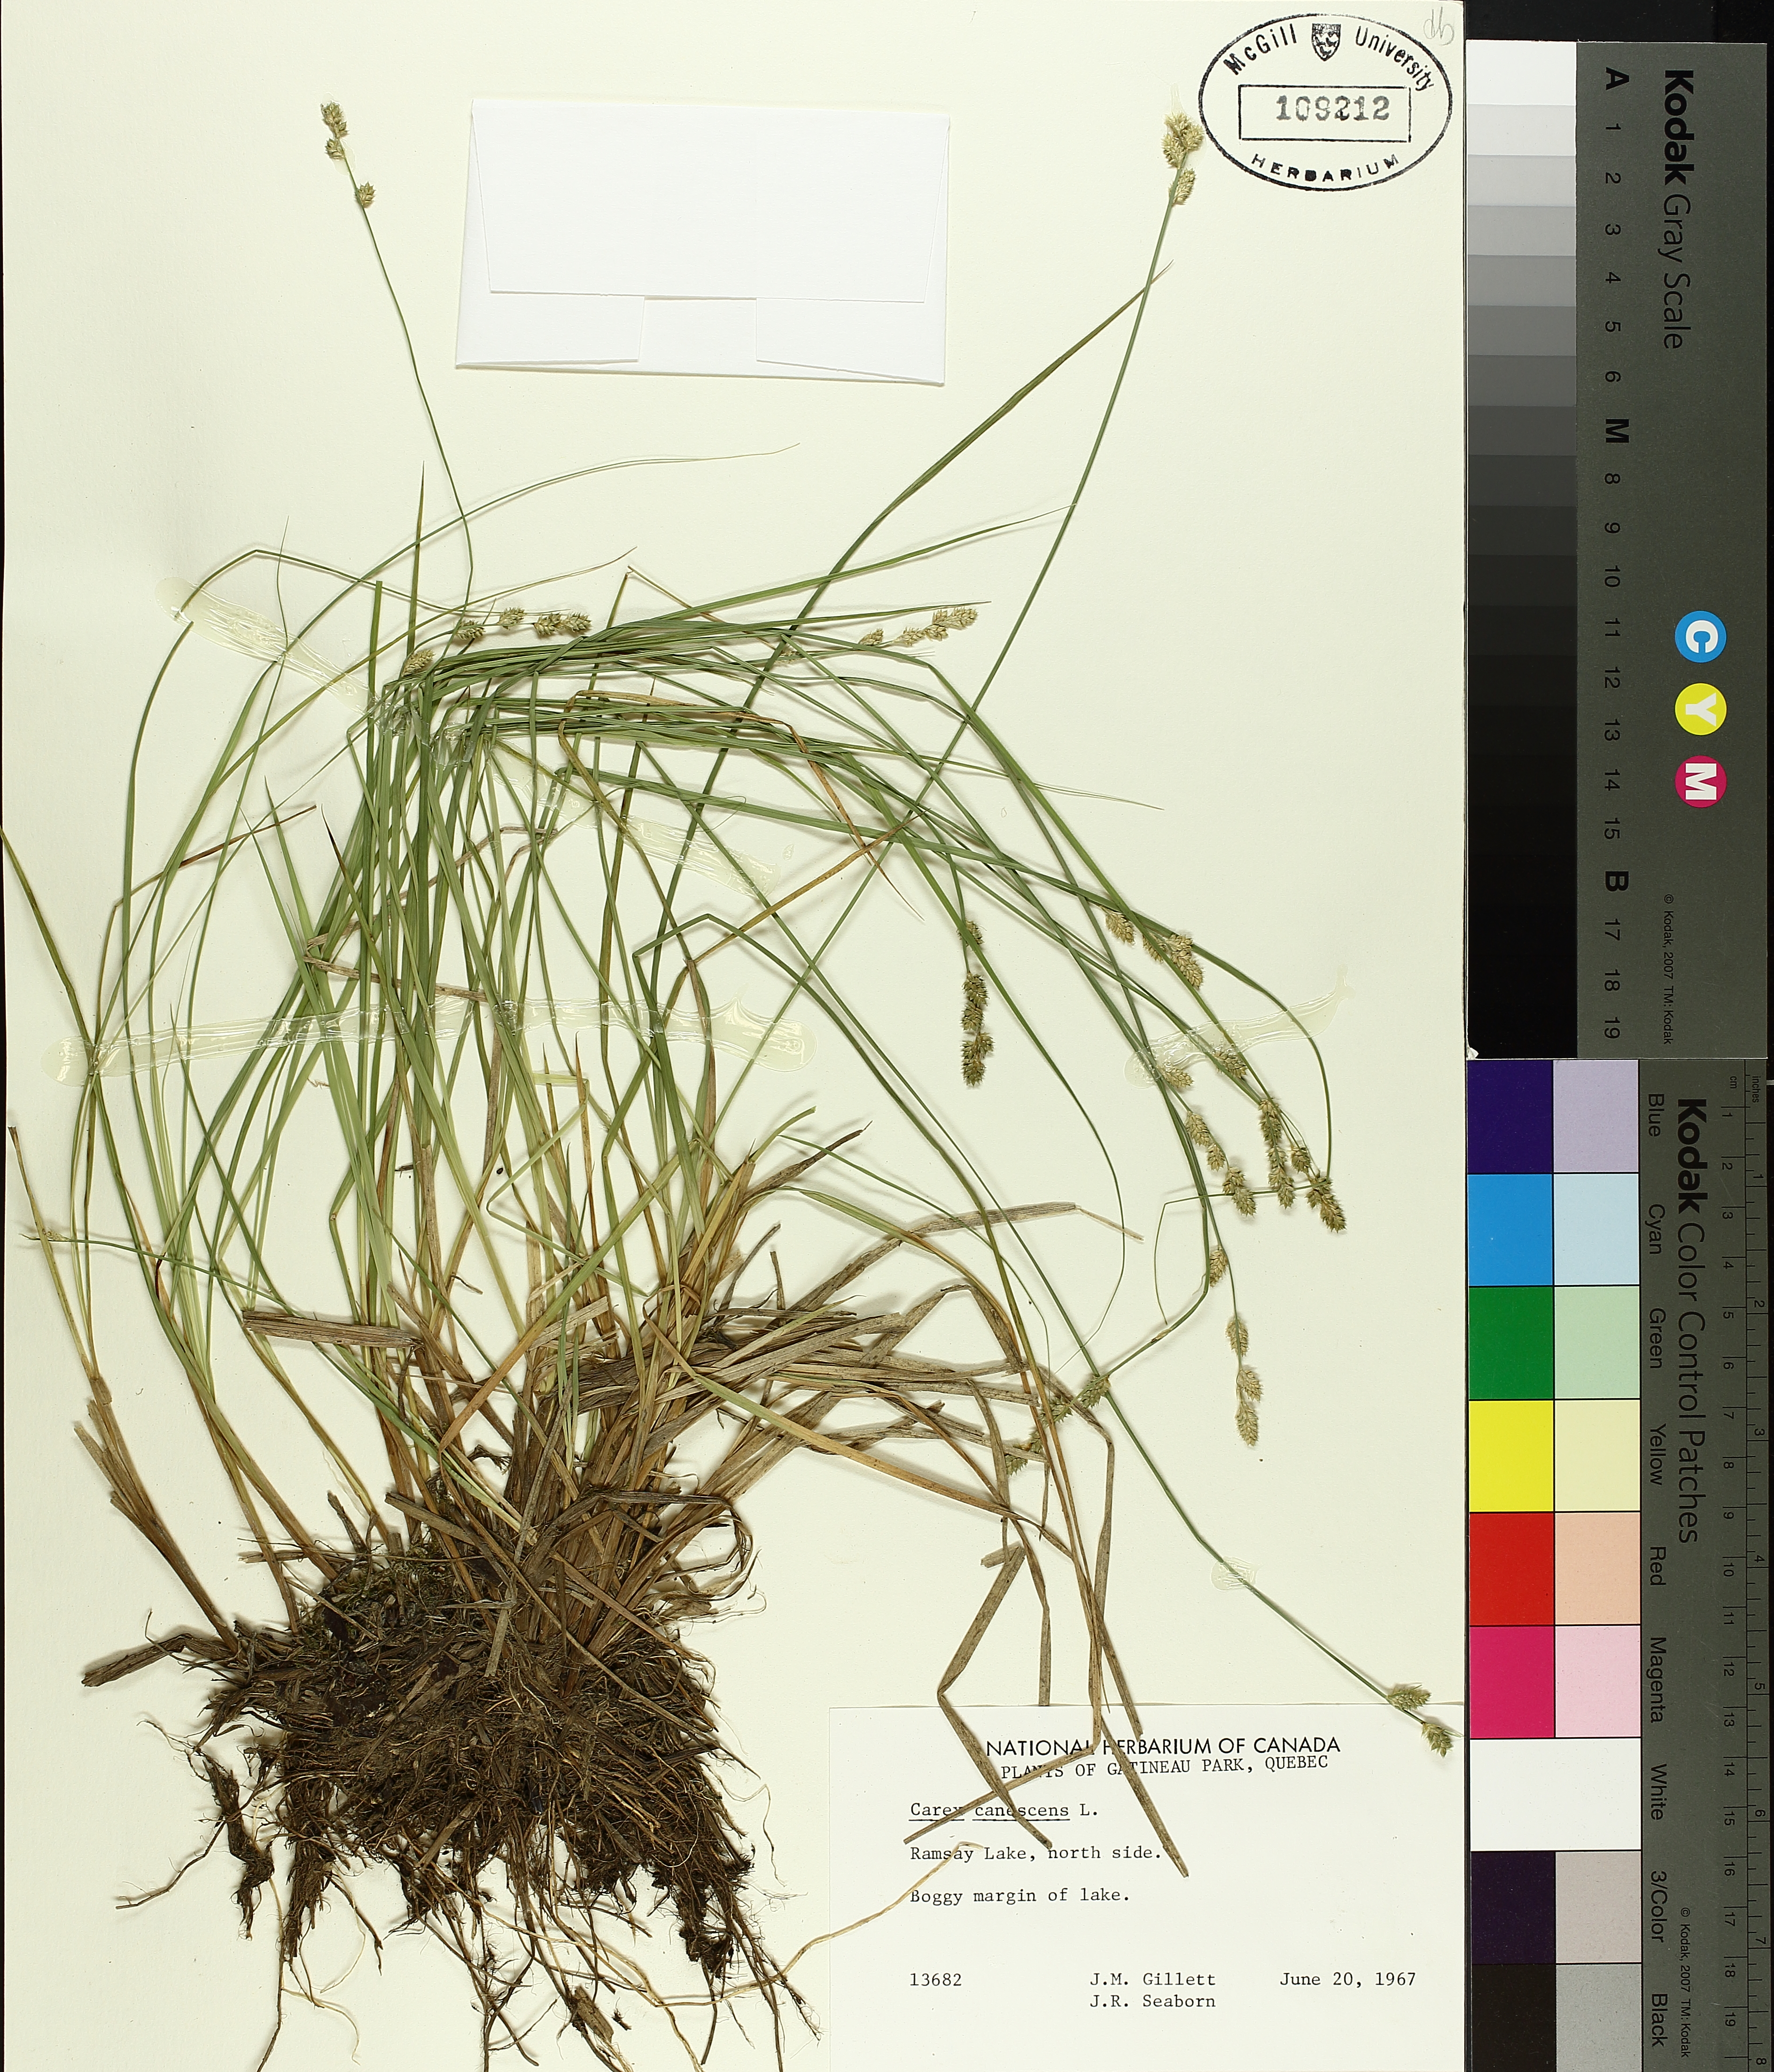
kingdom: Plantae
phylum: Tracheophyta
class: Liliopsida
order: Poales
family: Cyperaceae
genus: Carex
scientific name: Carex canescens
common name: White sedge
